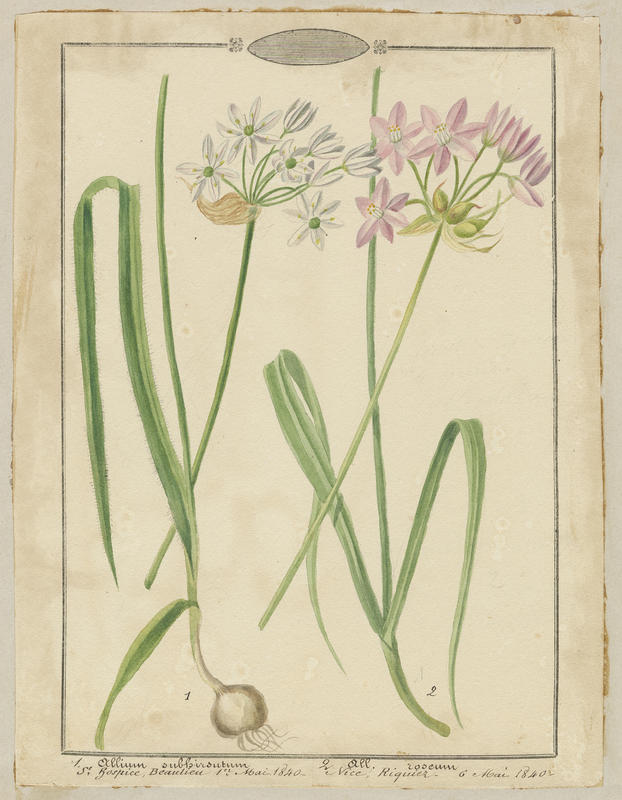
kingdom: Plantae
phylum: Tracheophyta
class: Liliopsida
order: Asparagales
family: Amaryllidaceae
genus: Allium
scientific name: Allium roseum
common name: Rosy garlic
